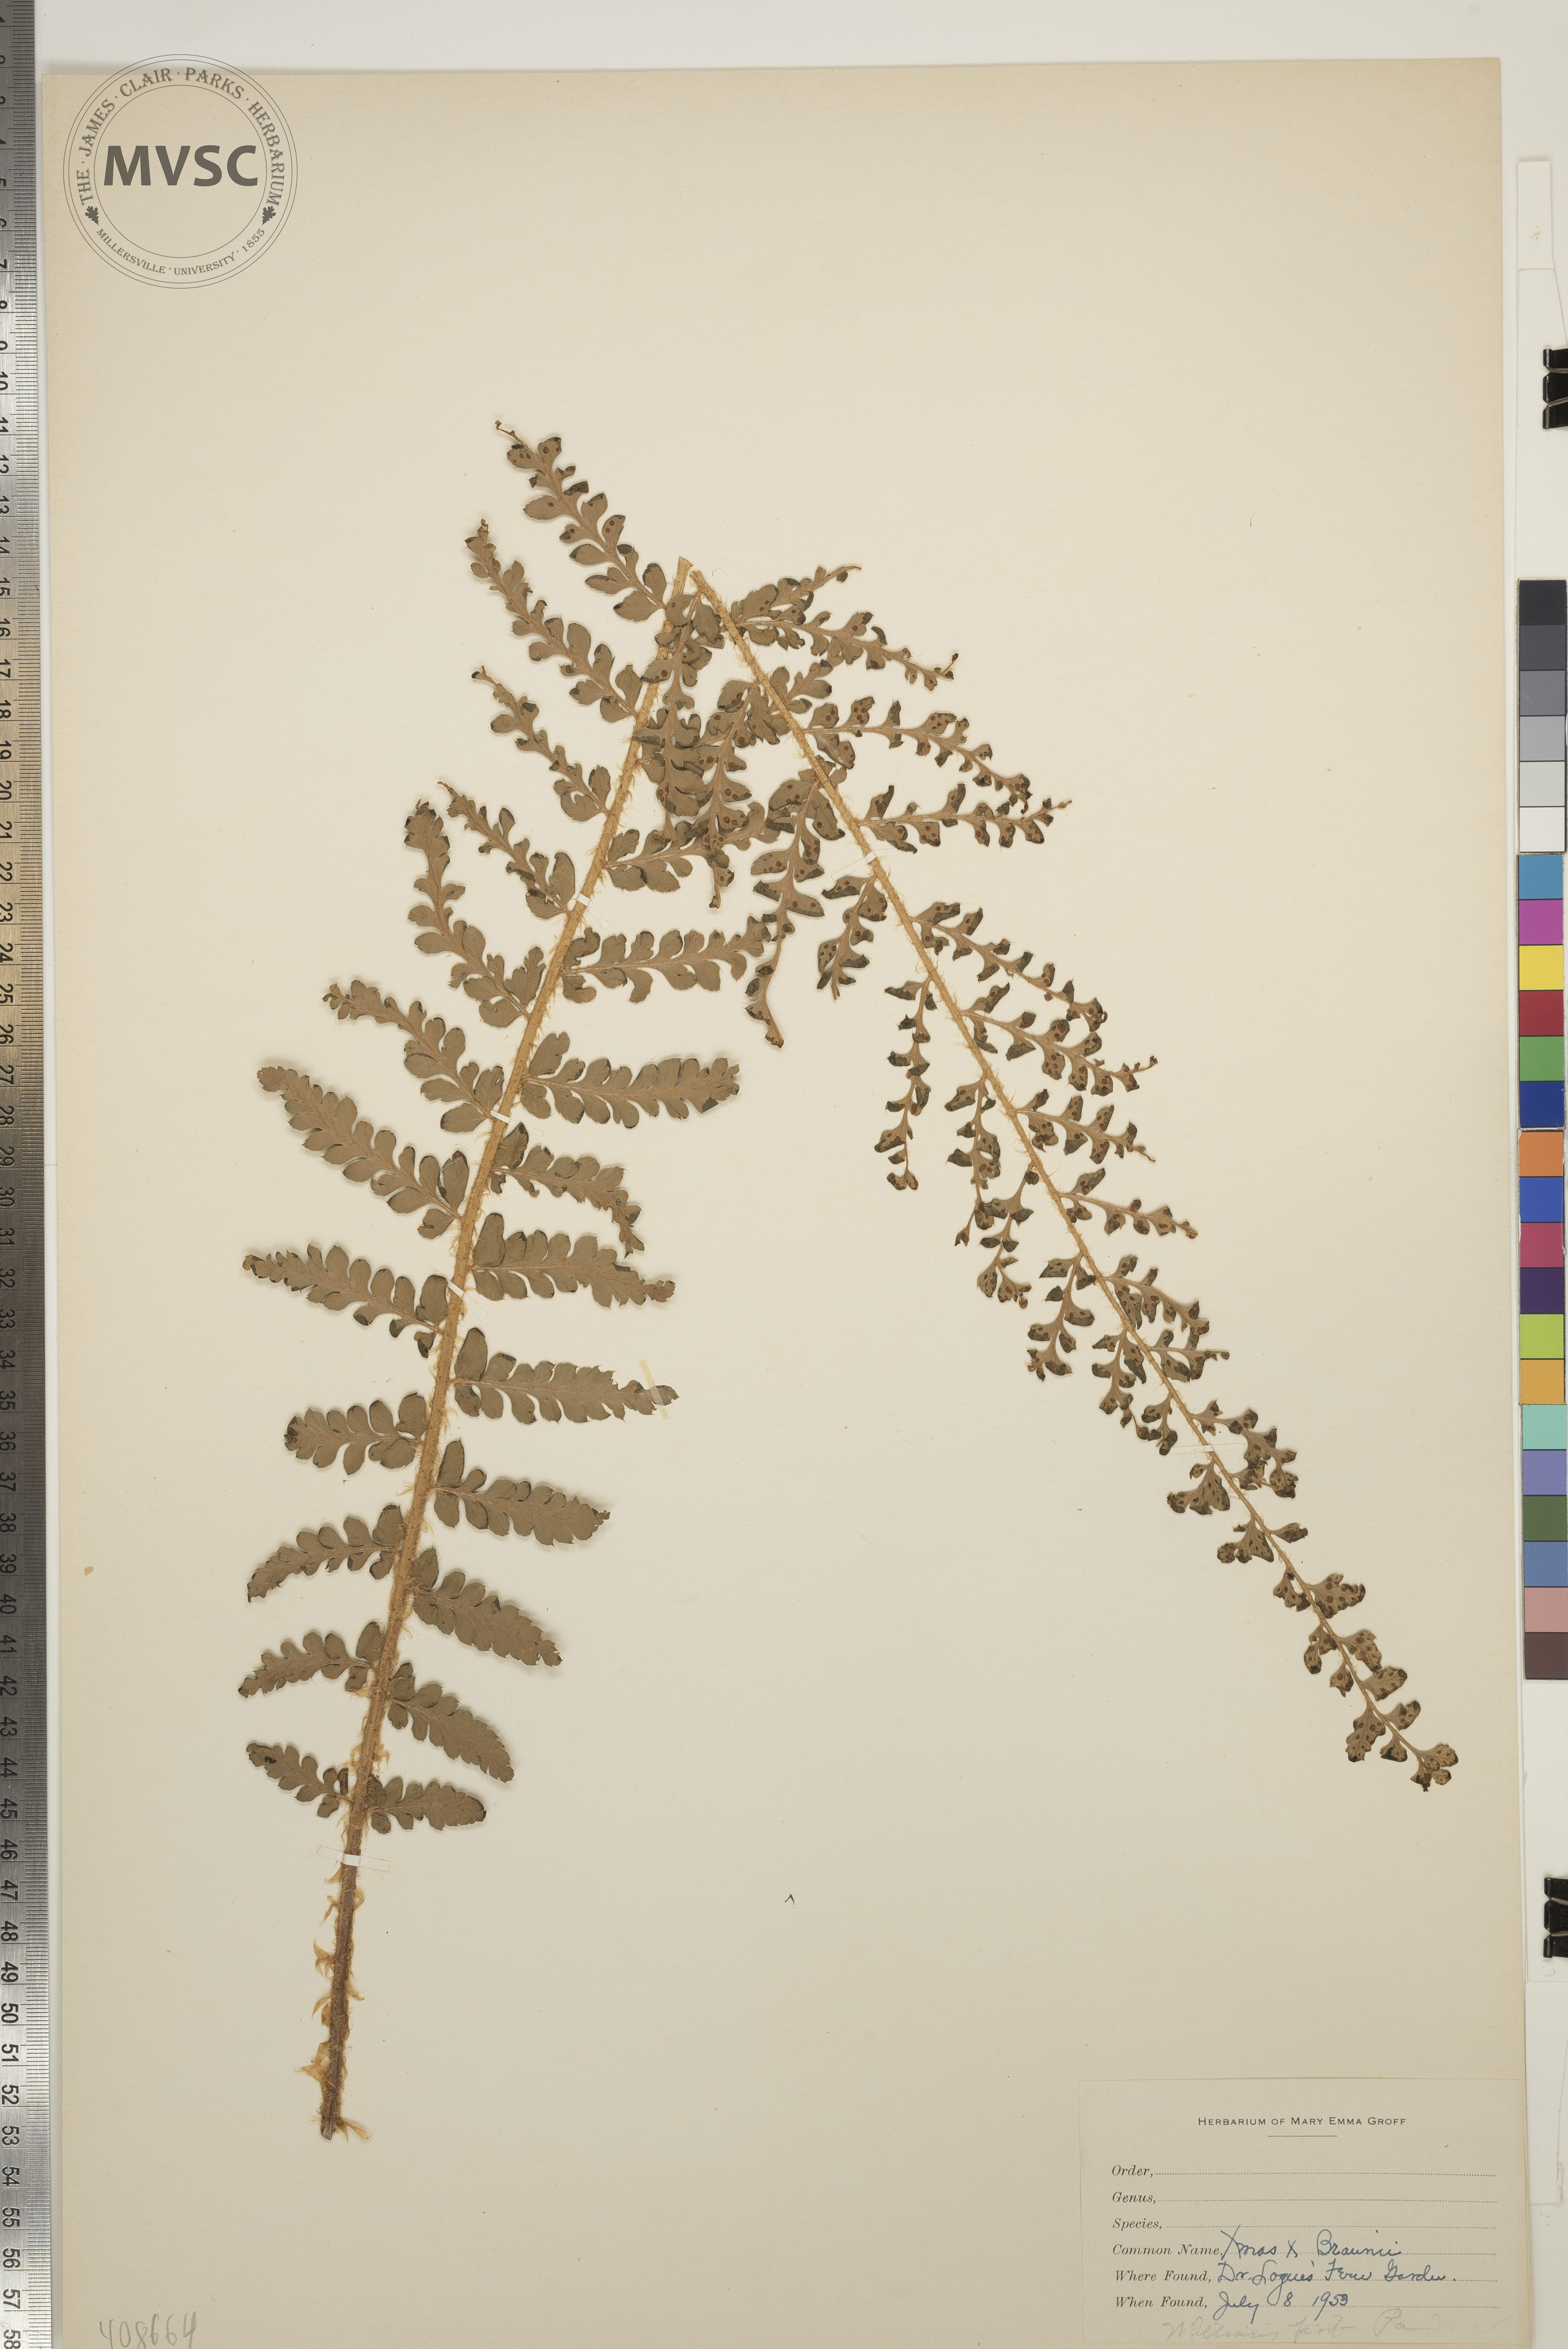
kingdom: Plantae
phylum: Tracheophyta
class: Polypodiopsida
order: Polypodiales
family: Dryopteridaceae
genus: Polystichum
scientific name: Polystichum
